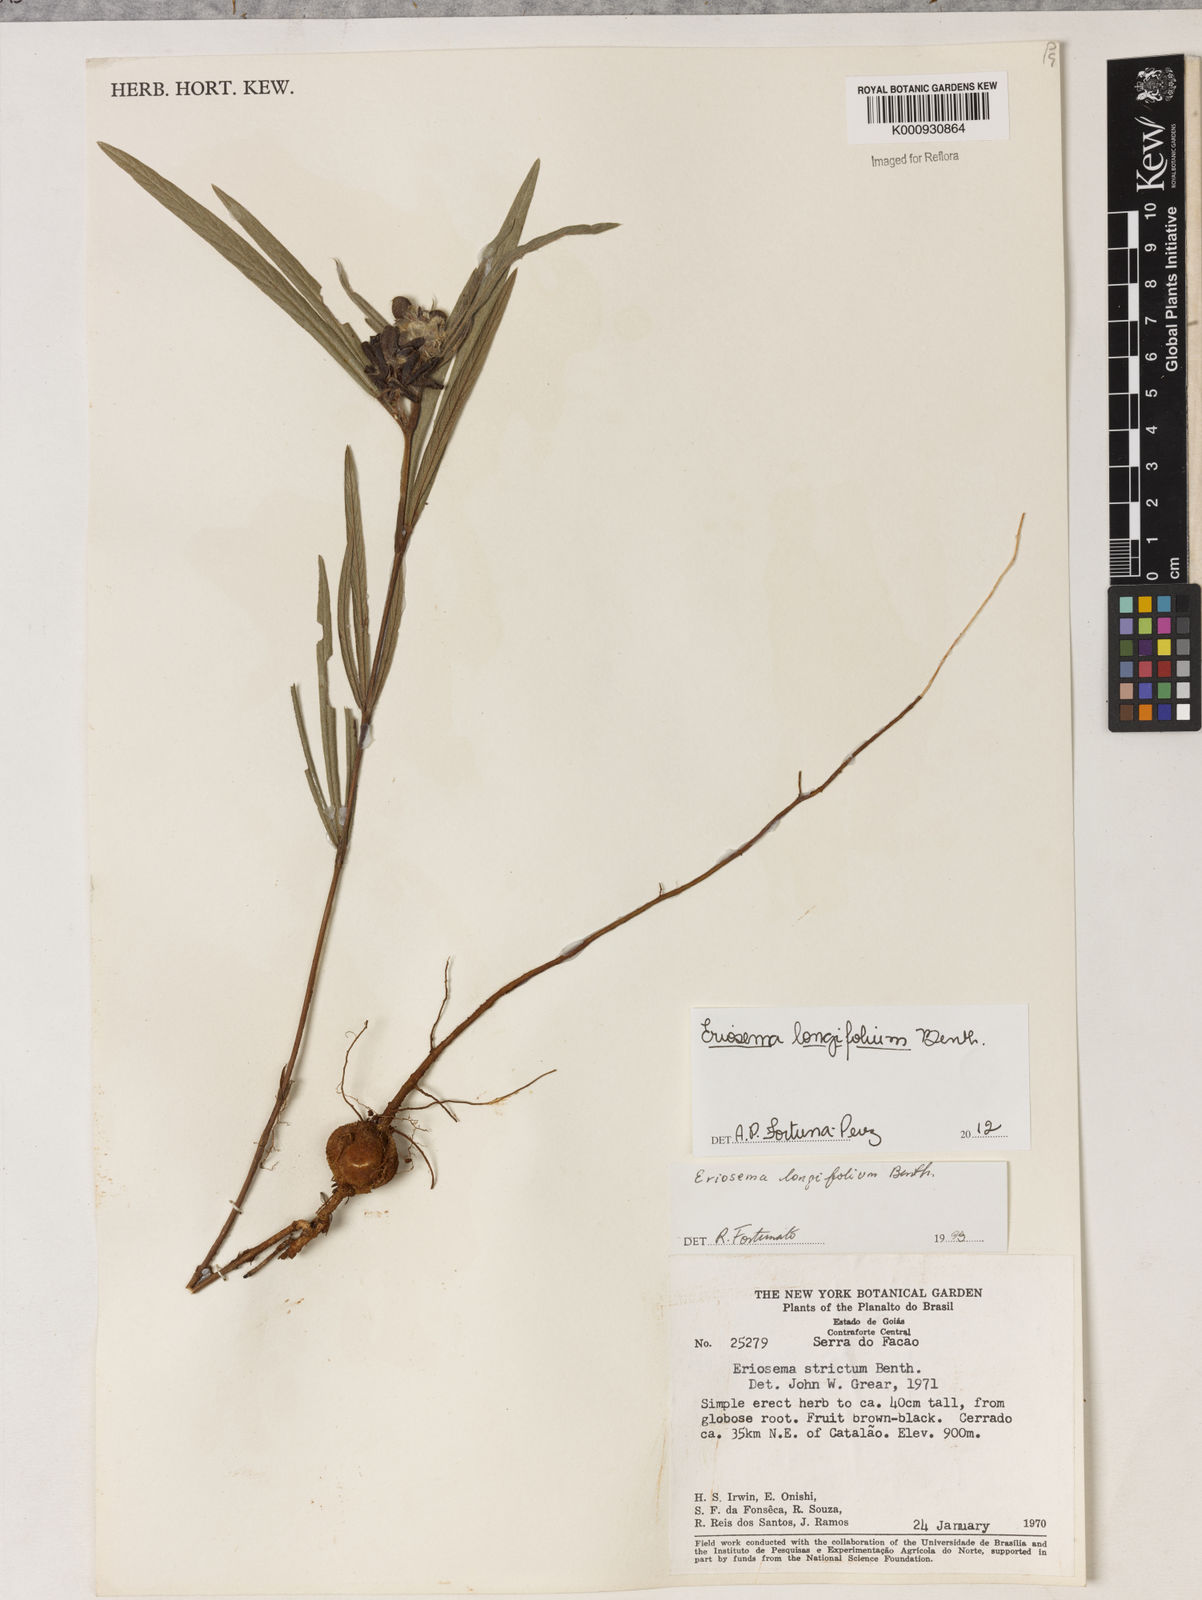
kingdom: Plantae
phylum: Tracheophyta
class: Magnoliopsida
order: Fabales
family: Fabaceae
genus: Eriosema
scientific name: Eriosema longifolium
